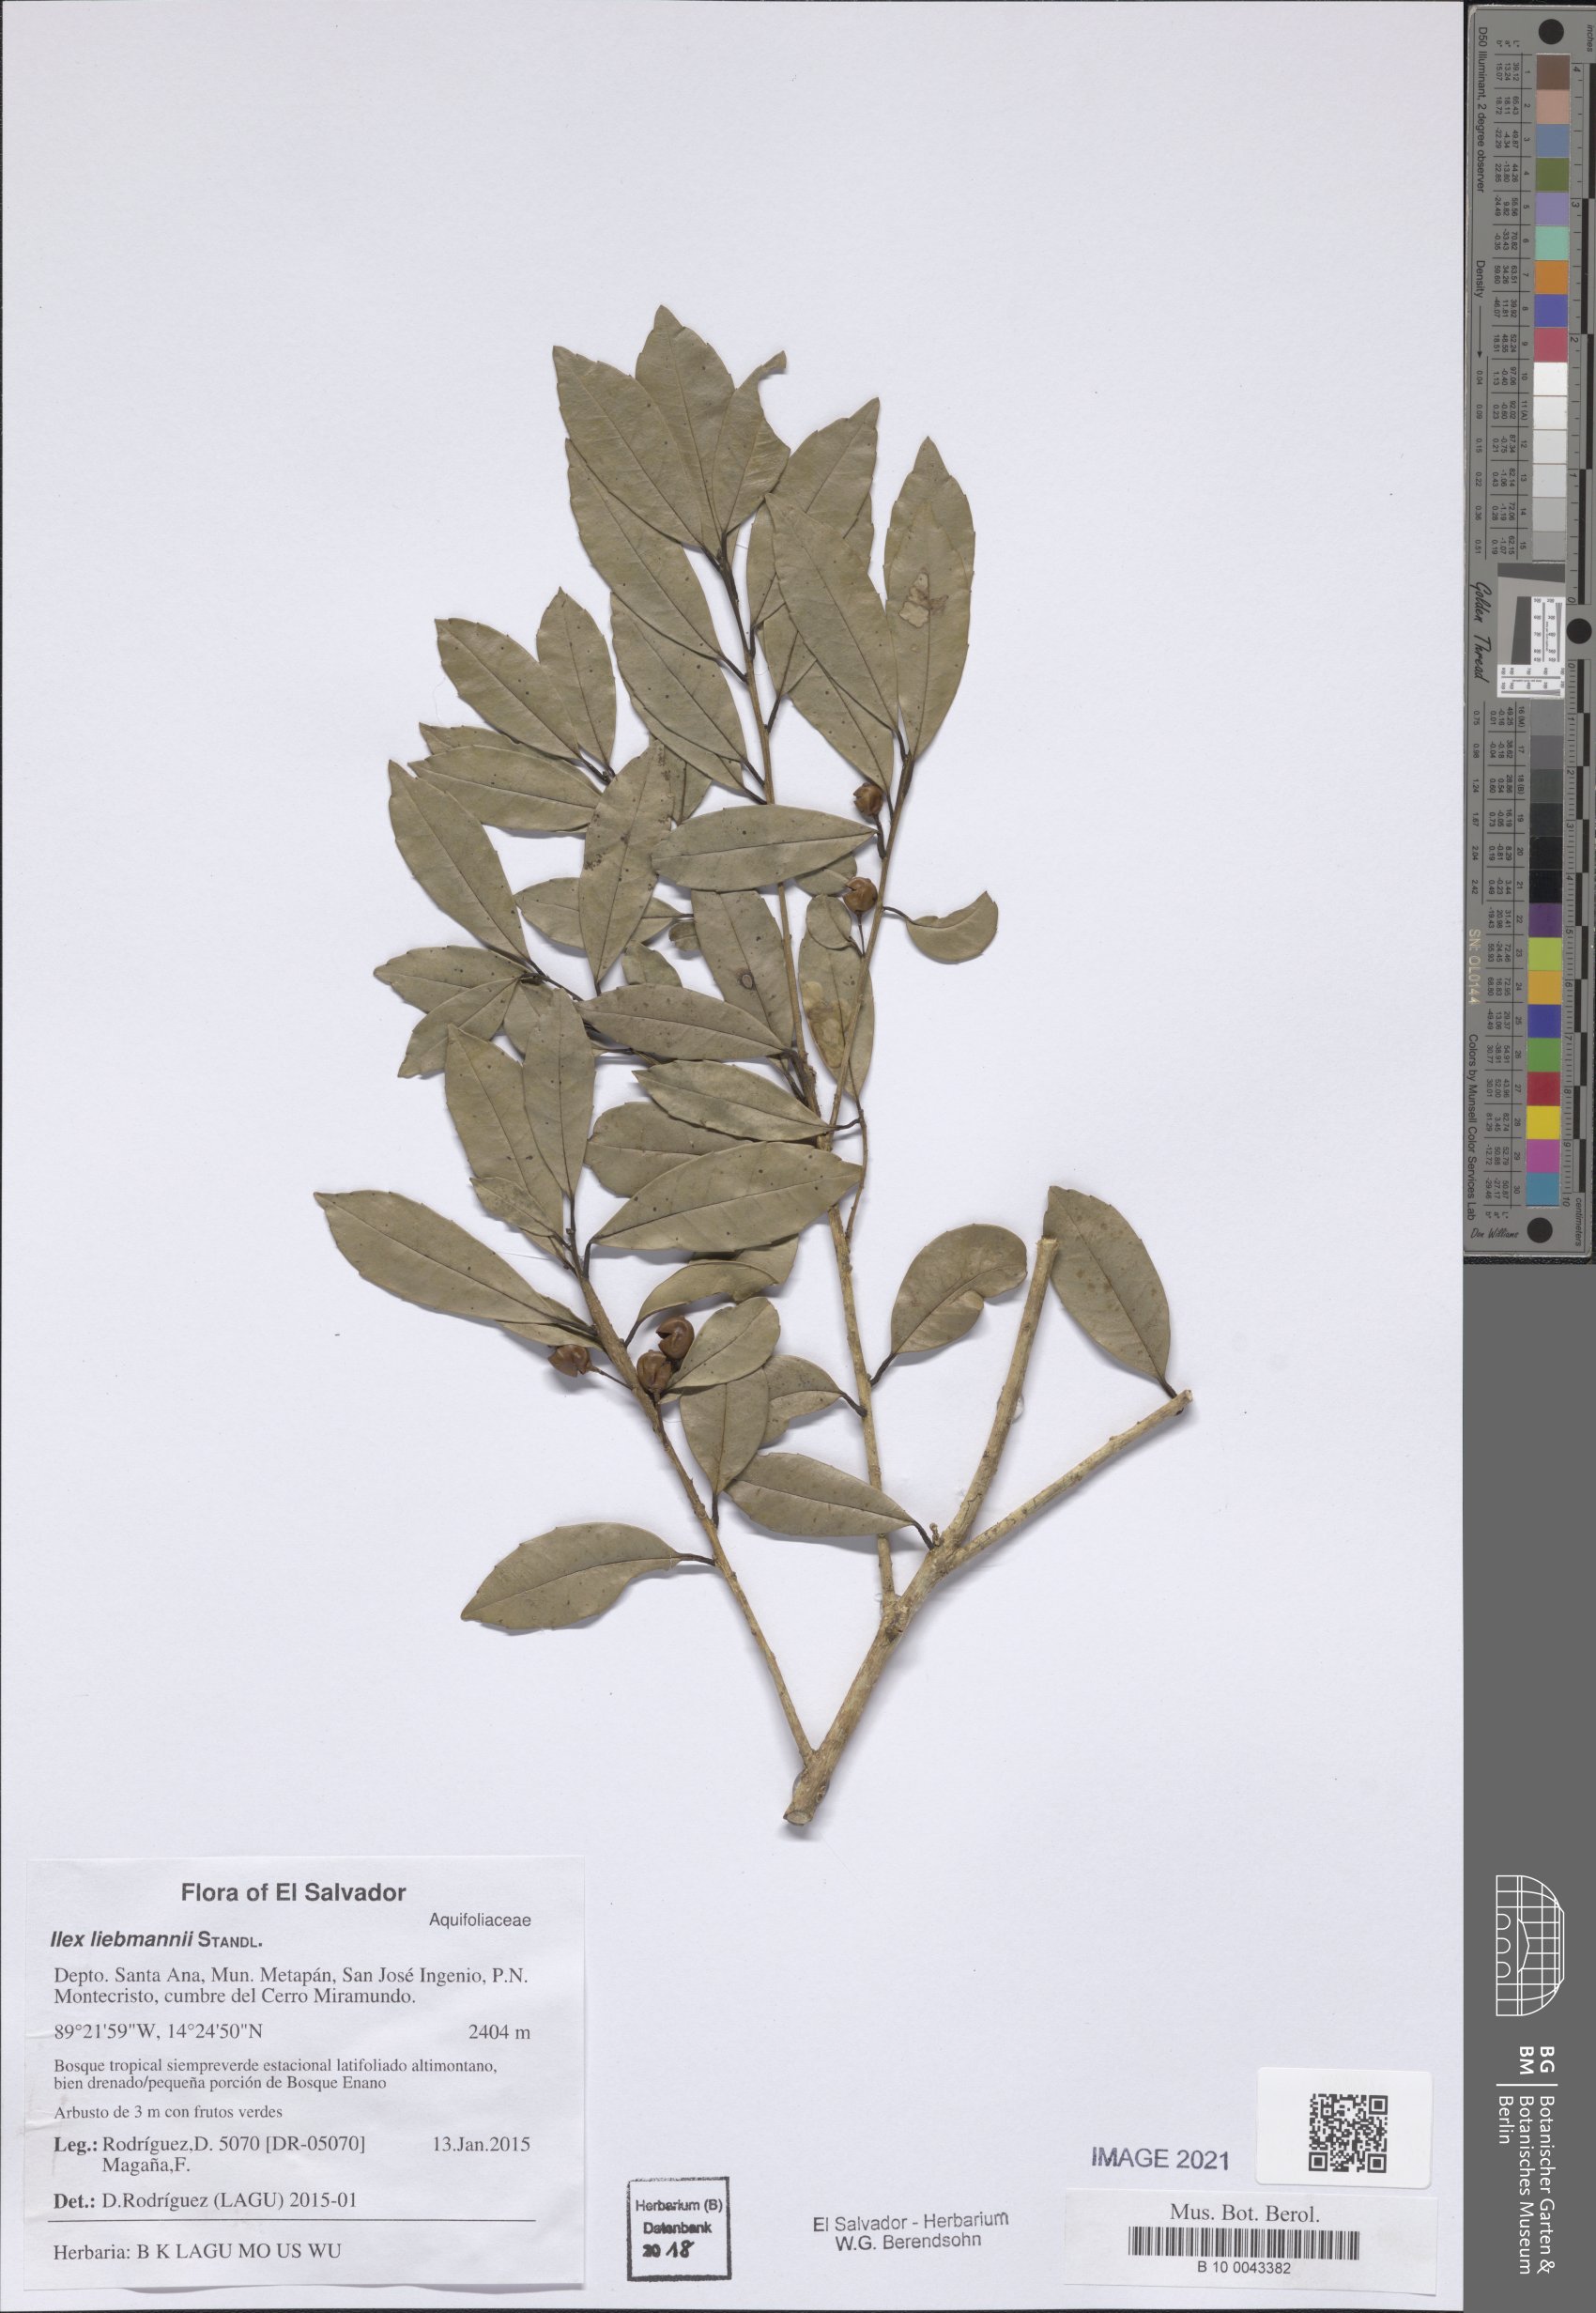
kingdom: Plantae
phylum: Tracheophyta
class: Magnoliopsida
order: Aquifoliales
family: Aquifoliaceae
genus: Ilex
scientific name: Ilex pallida
